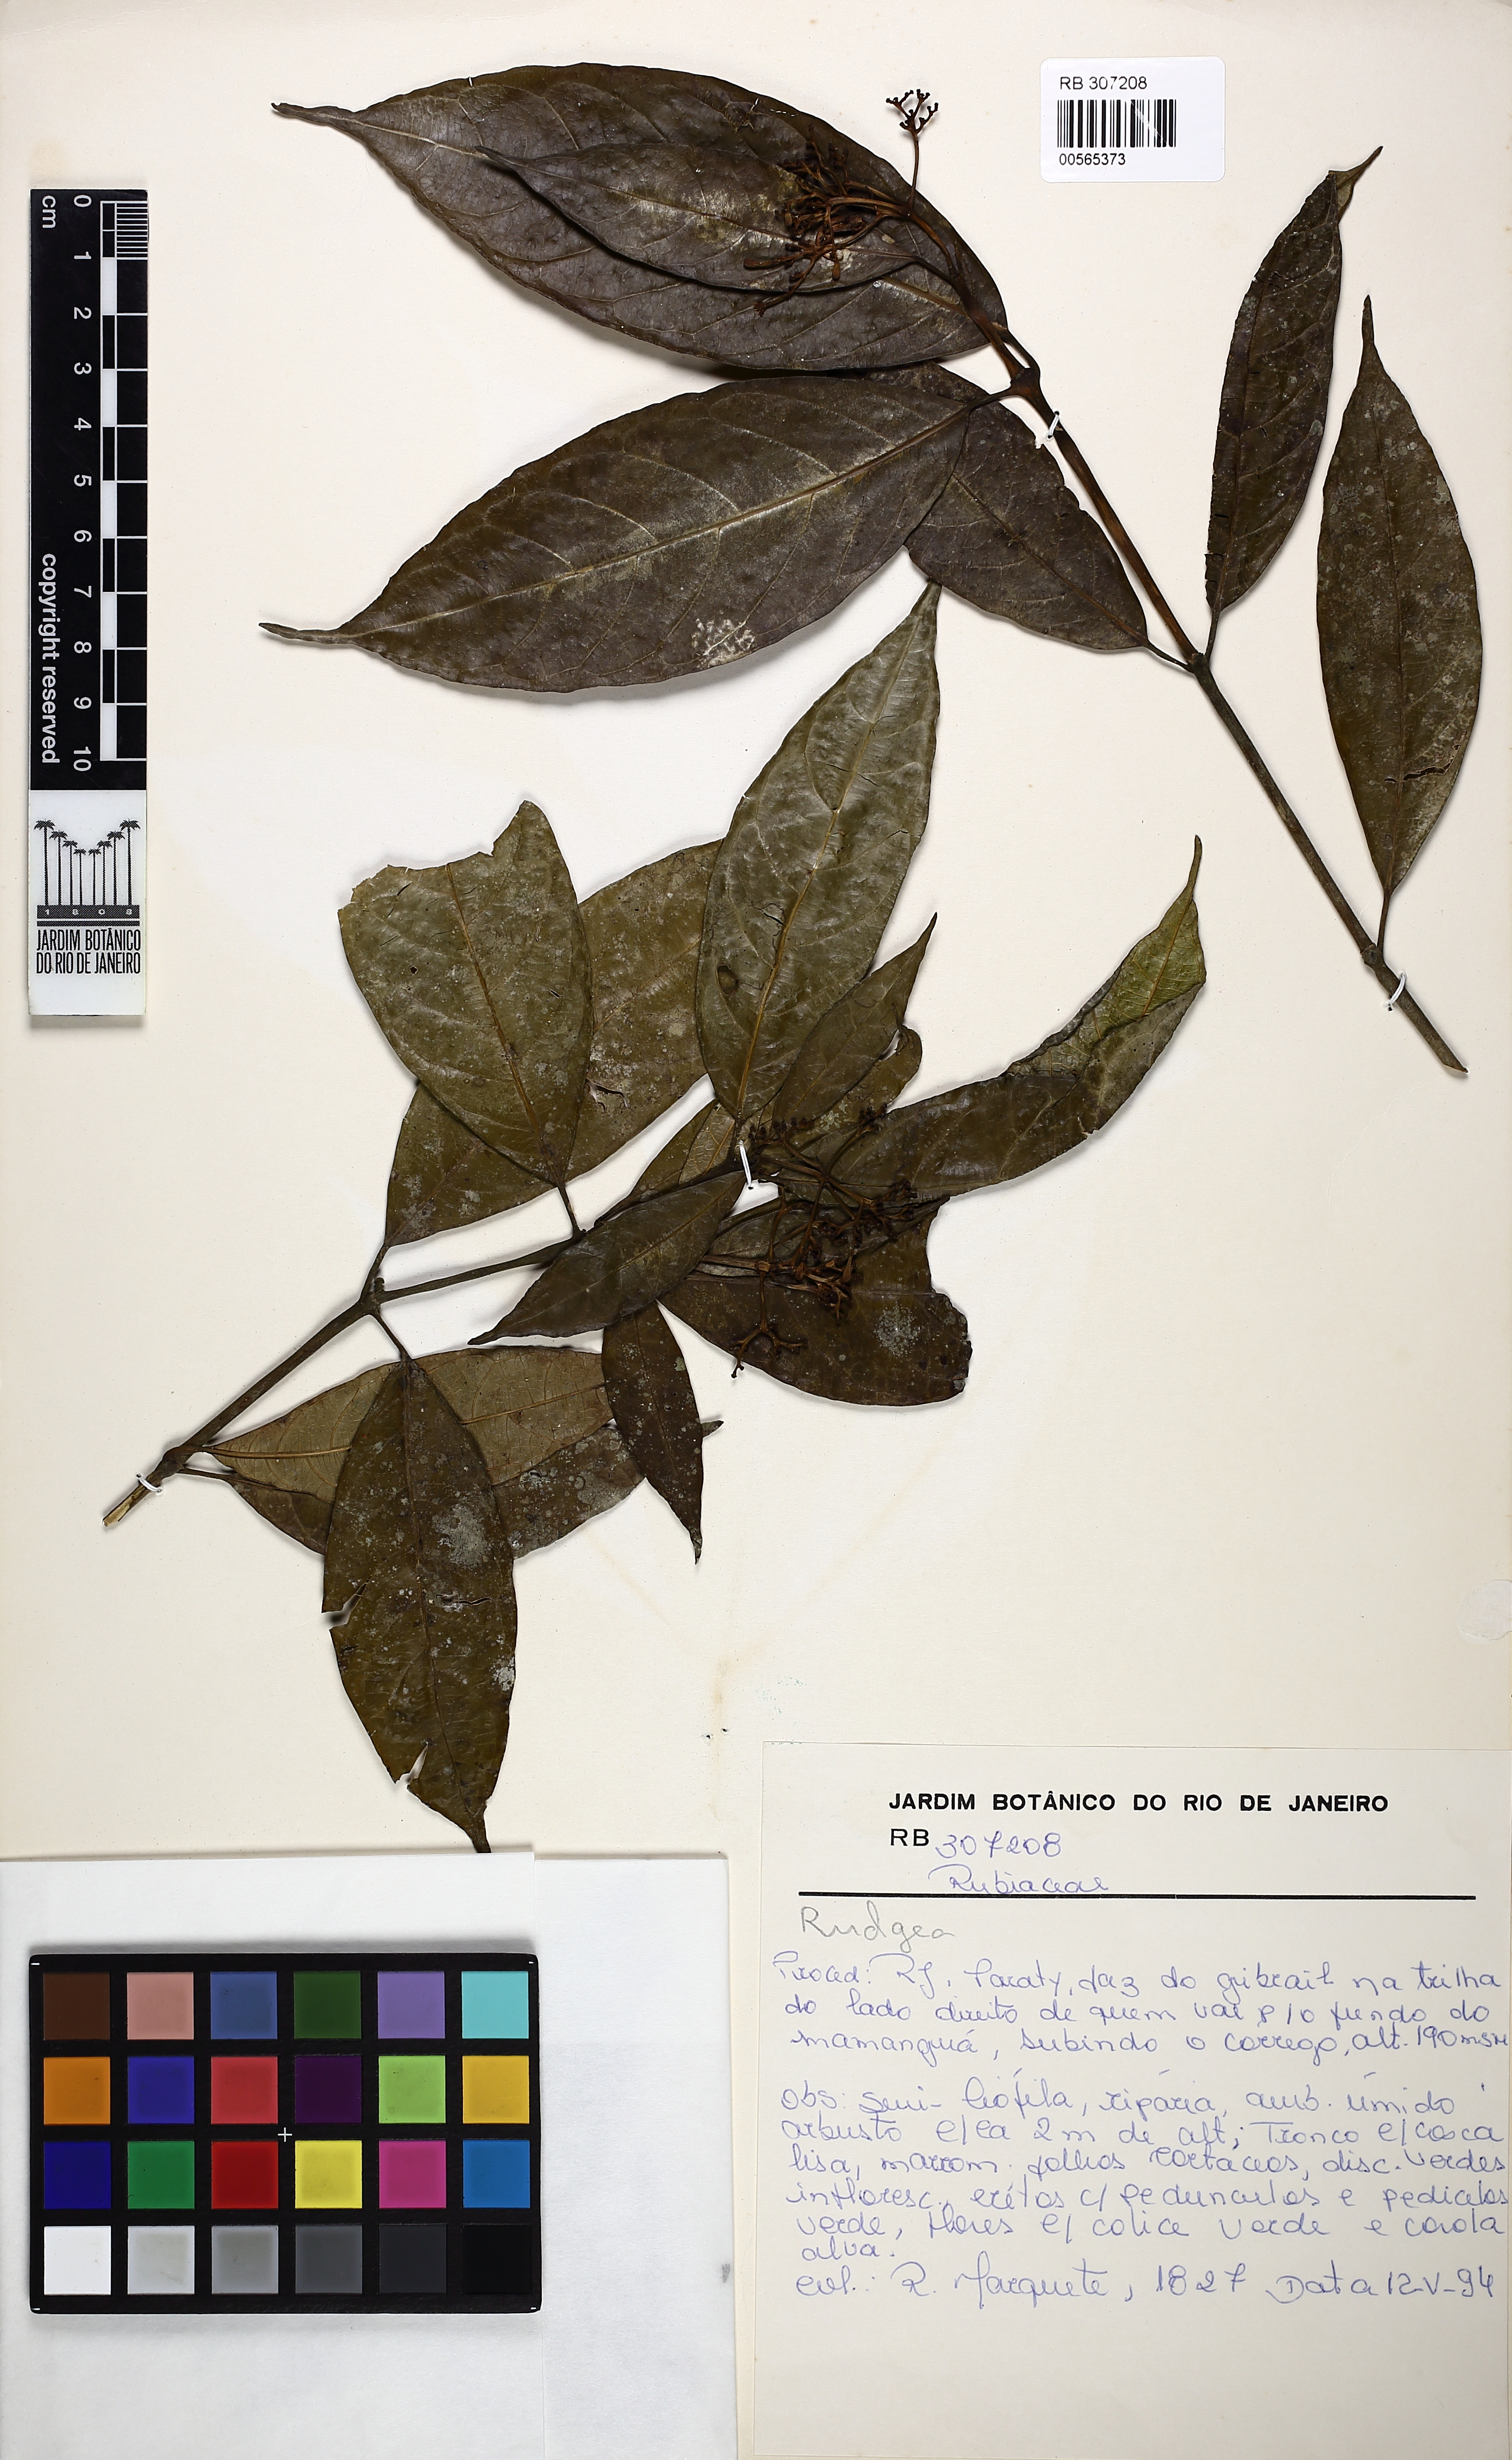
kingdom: Plantae
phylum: Tracheophyta
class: Magnoliopsida
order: Gentianales
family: Rubiaceae
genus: Psychotria
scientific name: Psychotria leitana
